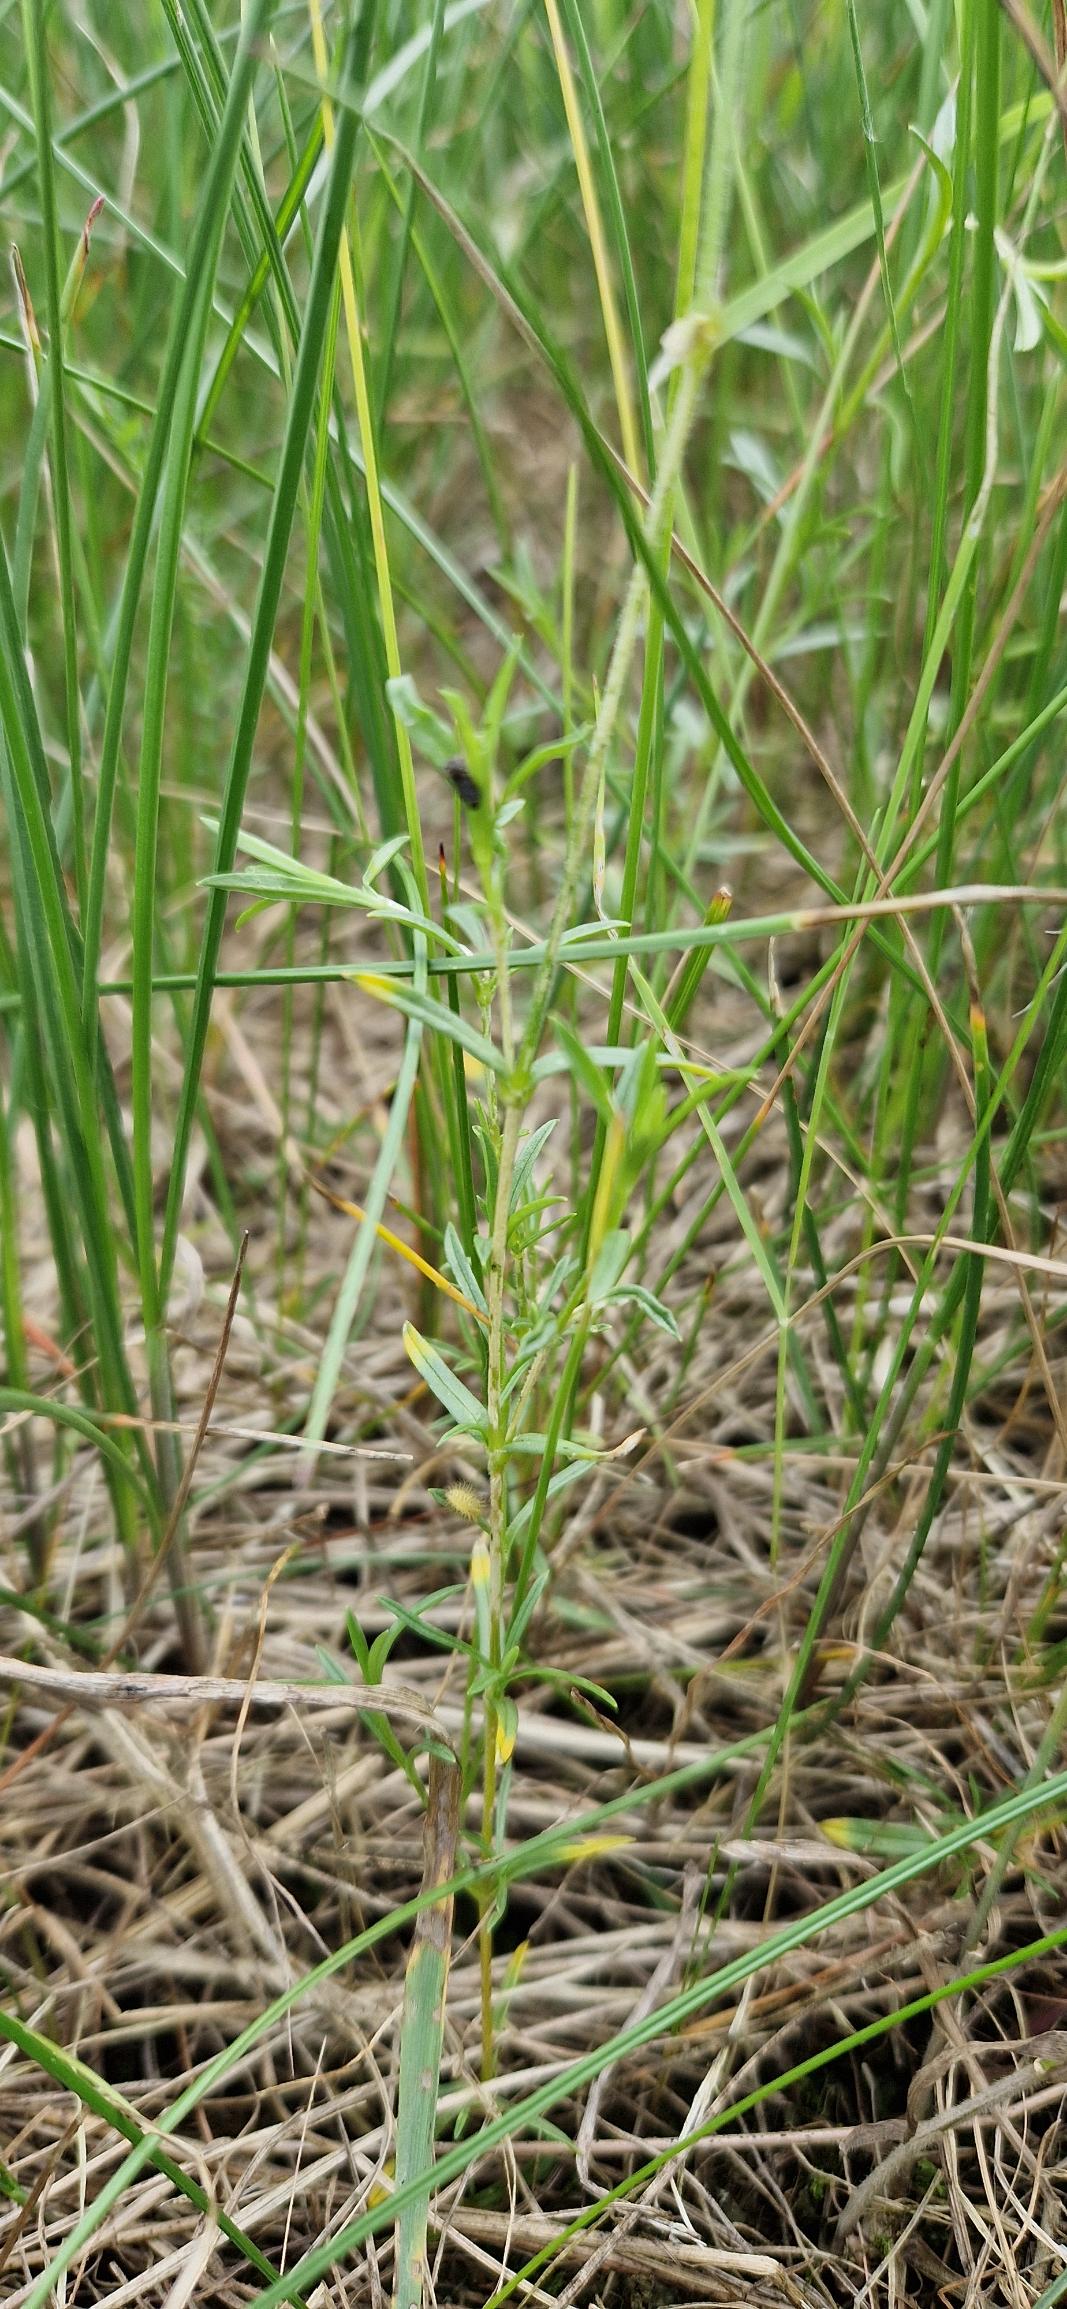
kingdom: Plantae
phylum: Tracheophyta
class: Magnoliopsida
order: Caryophyllales
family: Caryophyllaceae
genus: Cerastium
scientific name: Cerastium arvense
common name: Storblomstret hønsetarm
